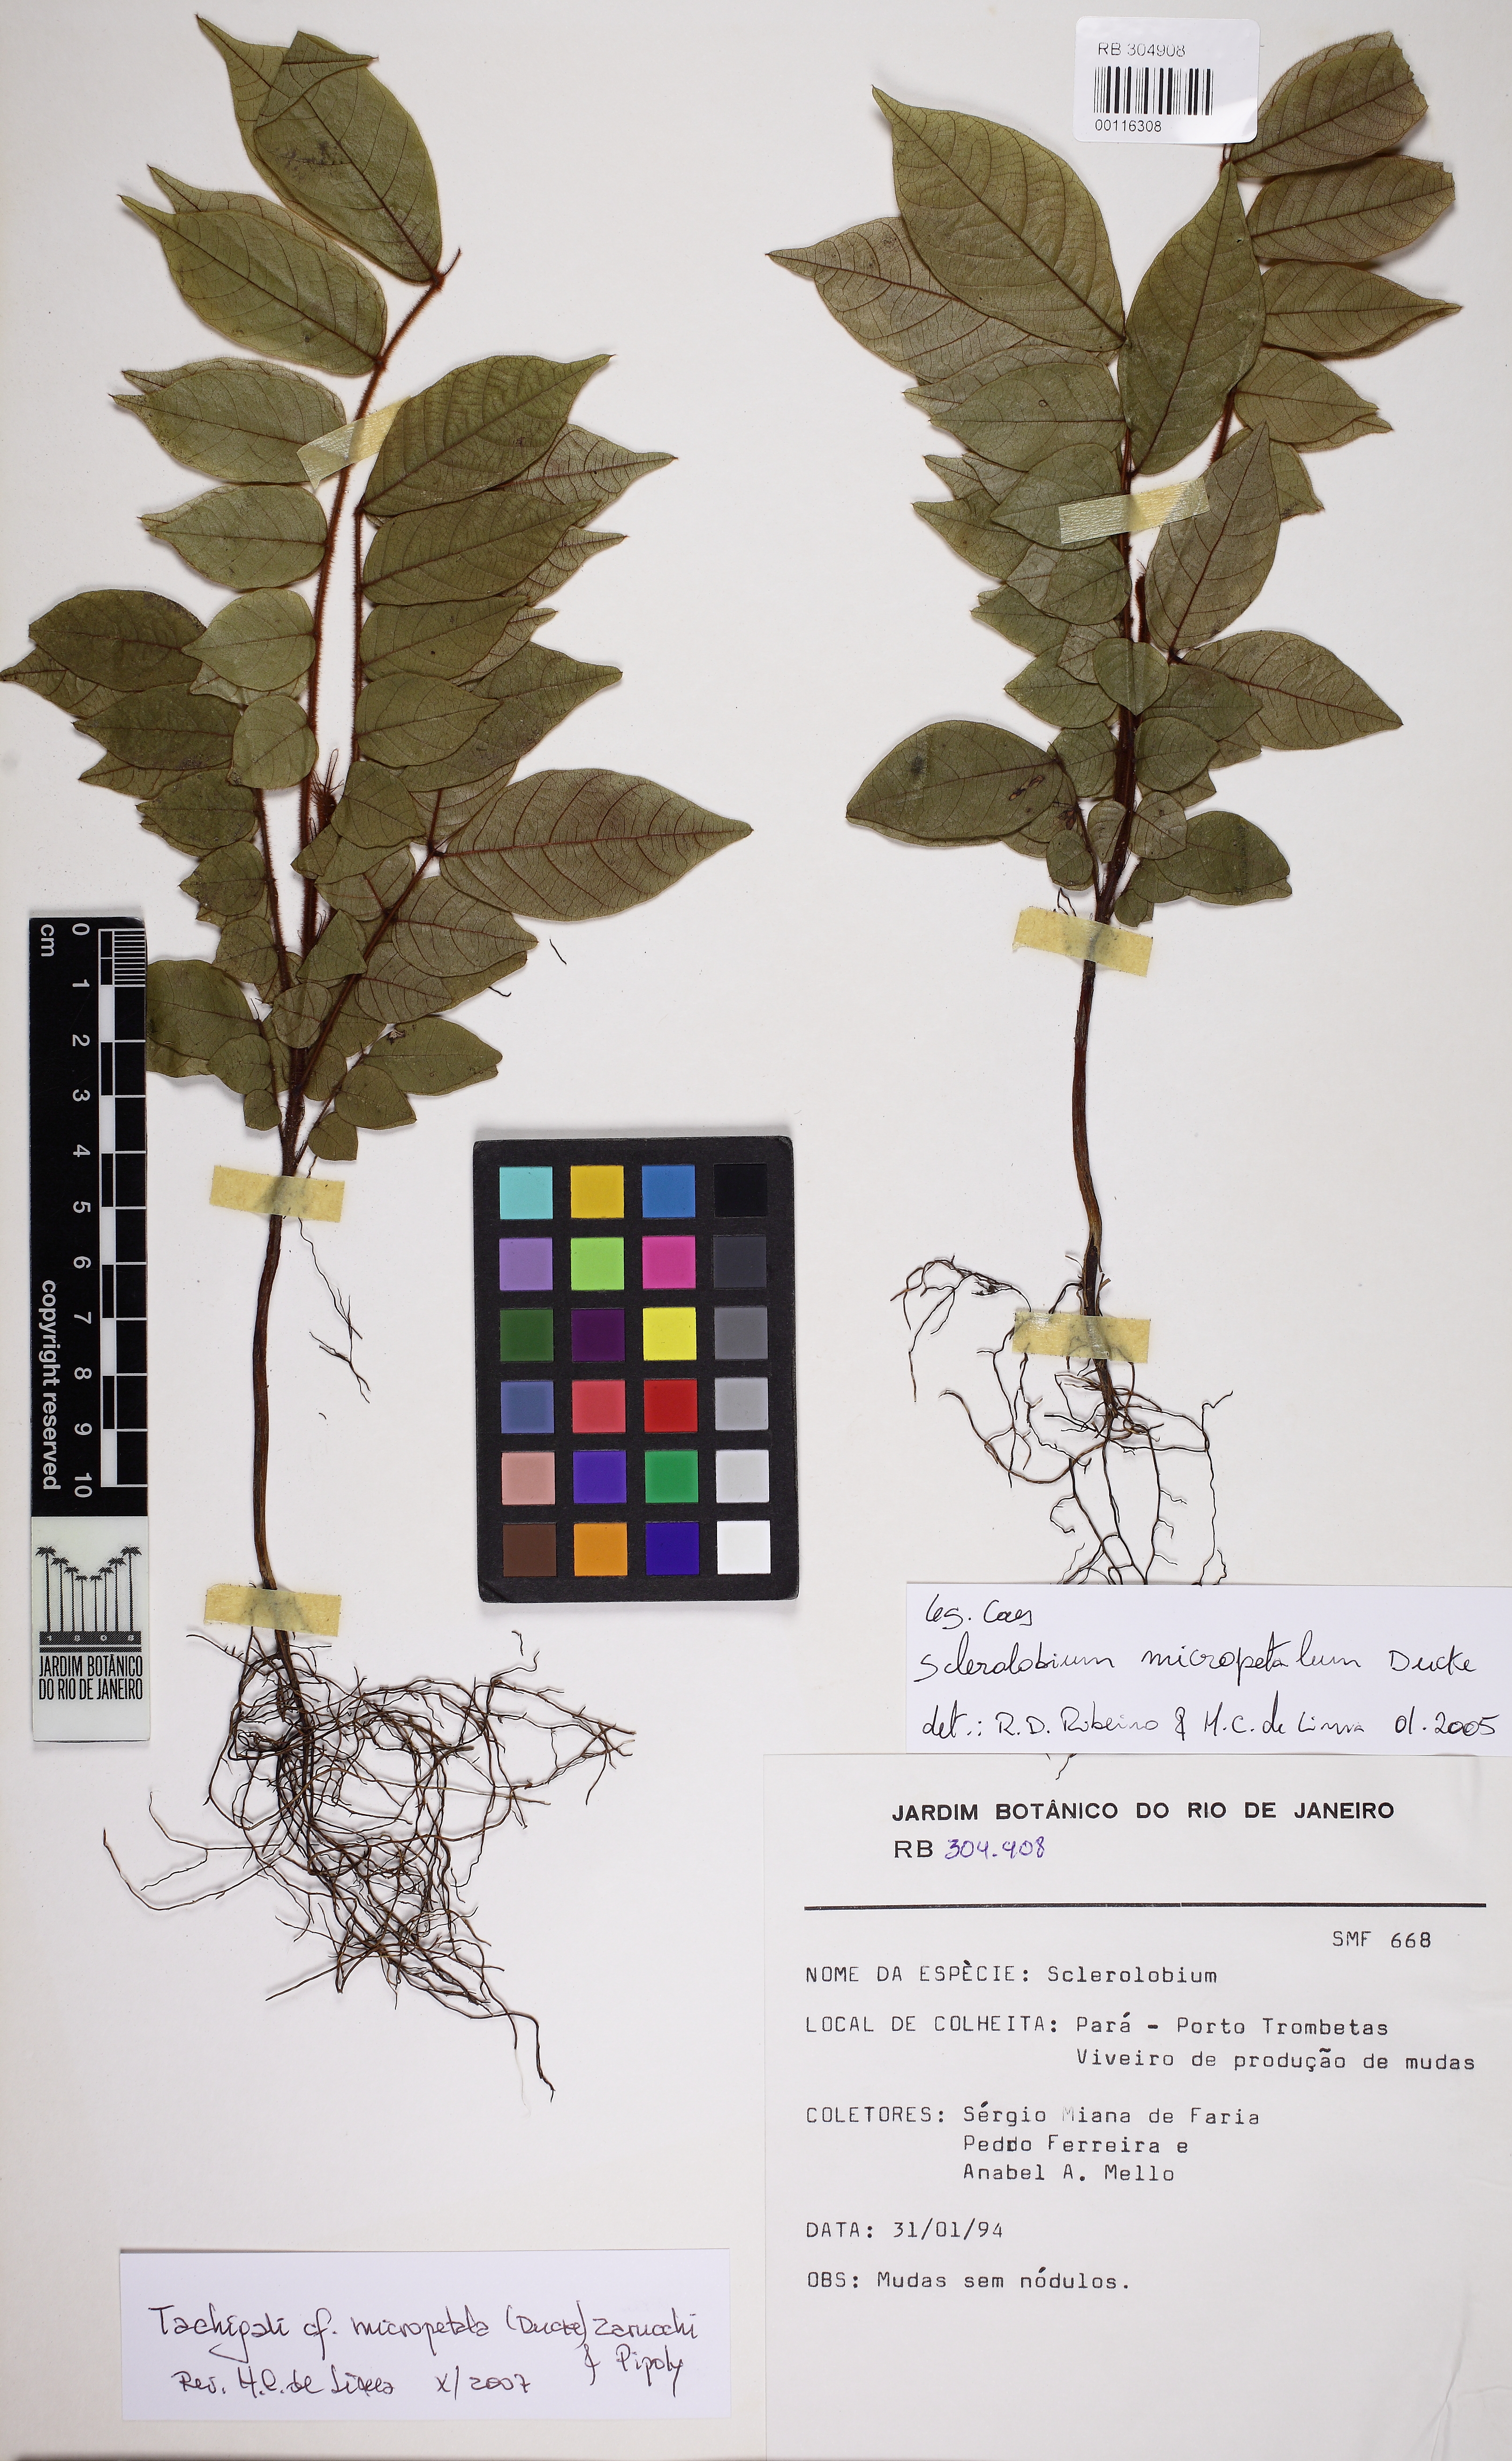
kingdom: Plantae
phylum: Tracheophyta
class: Magnoliopsida
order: Fabales
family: Fabaceae
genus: Tachigali
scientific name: Tachigali micropetala
